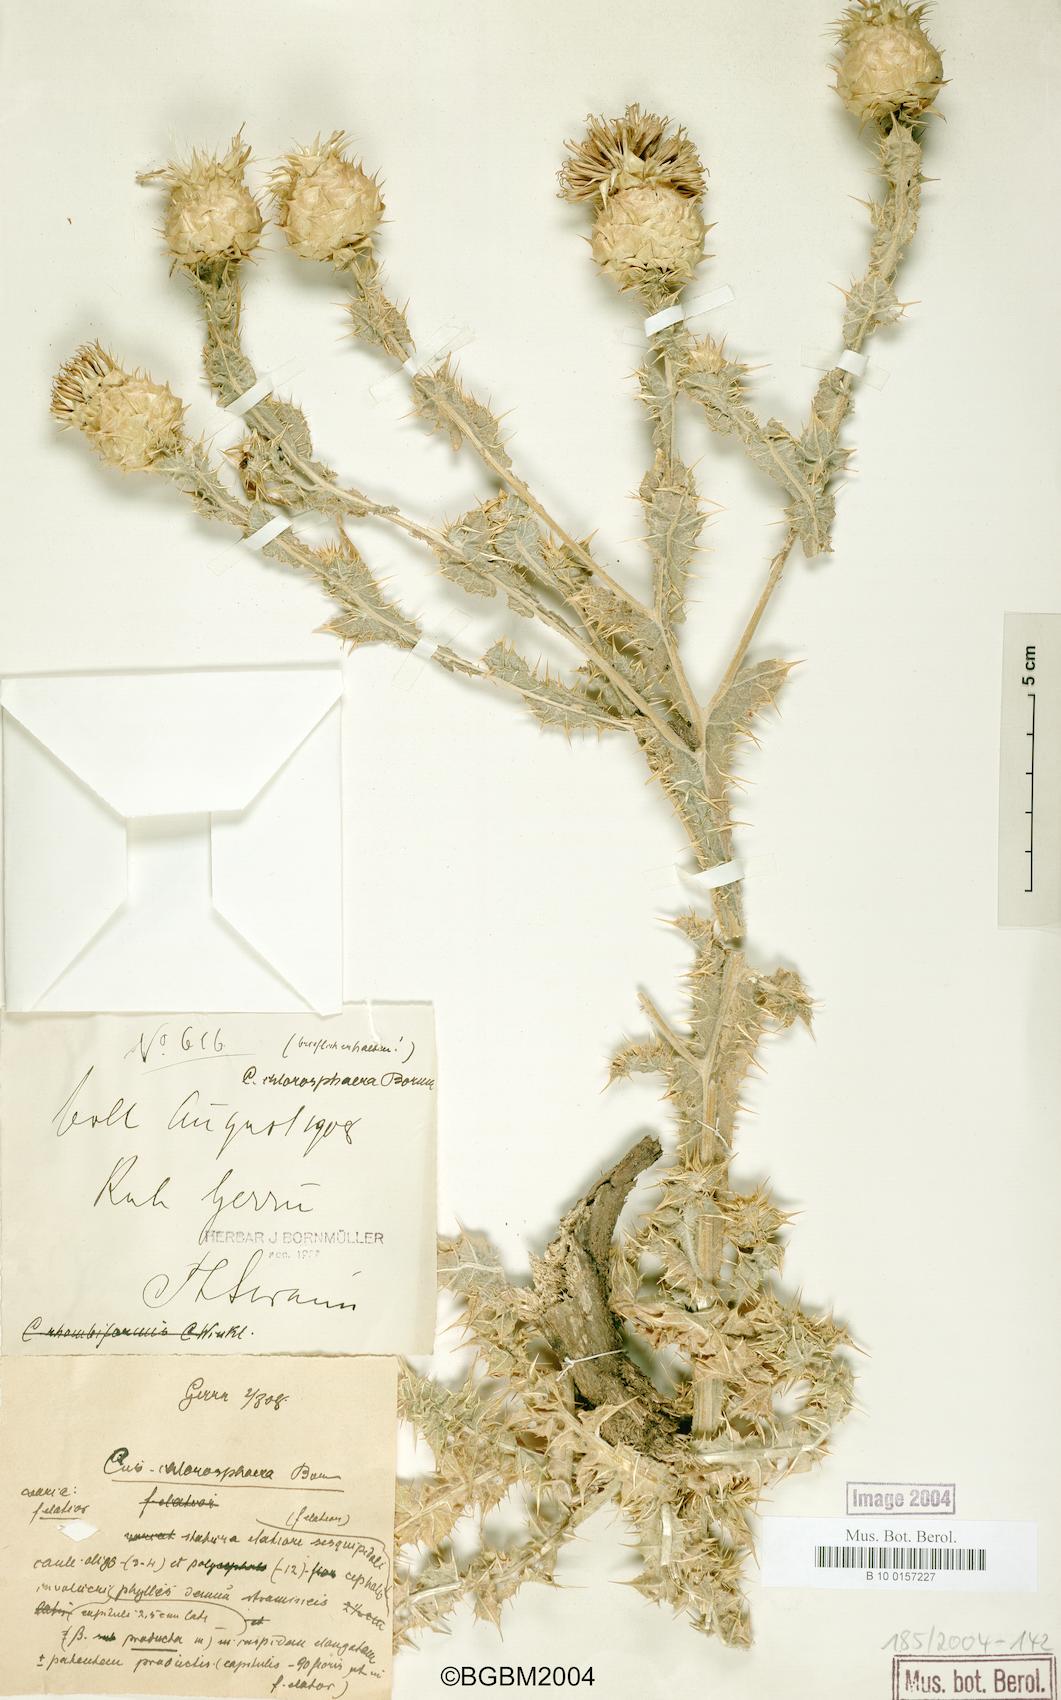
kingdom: Plantae
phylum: Tracheophyta
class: Magnoliopsida
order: Asterales
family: Asteraceae
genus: Cousinia
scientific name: Cousinia chlorosphaera
